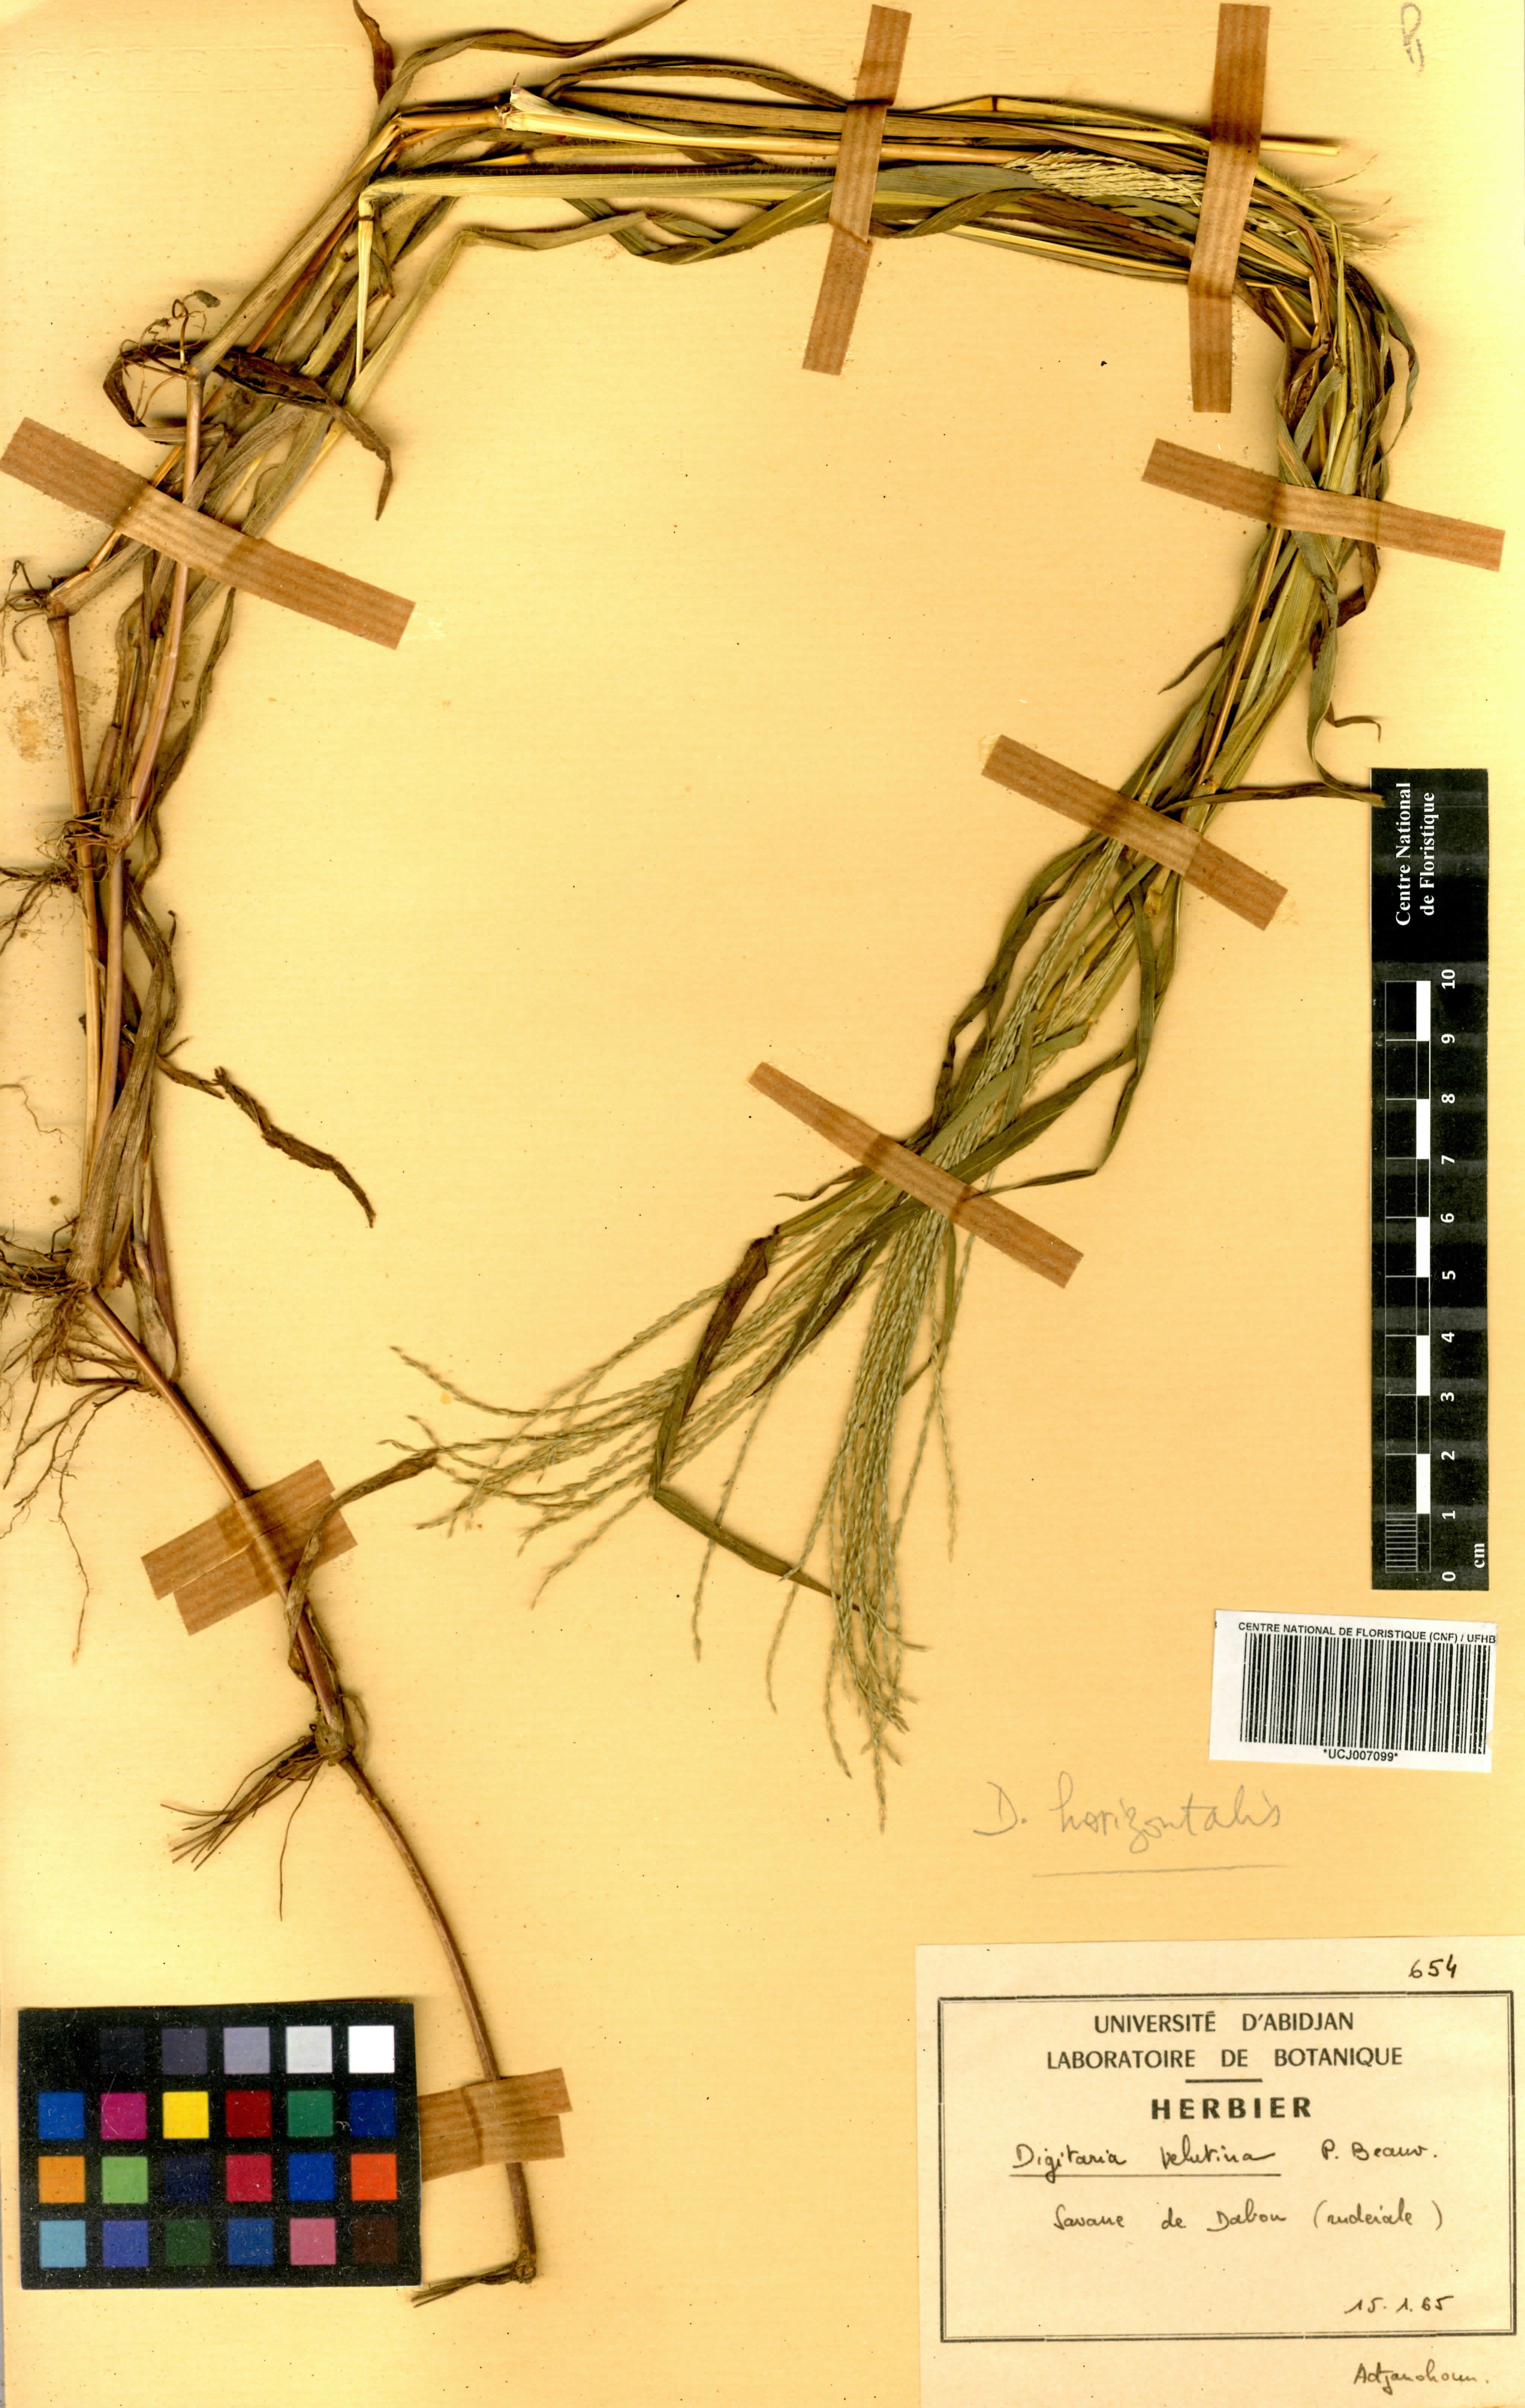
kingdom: Plantae
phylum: Tracheophyta
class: Liliopsida
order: Poales
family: Poaceae
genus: Digitaria
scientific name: Digitaria velutina
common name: Long-plume finger grass
